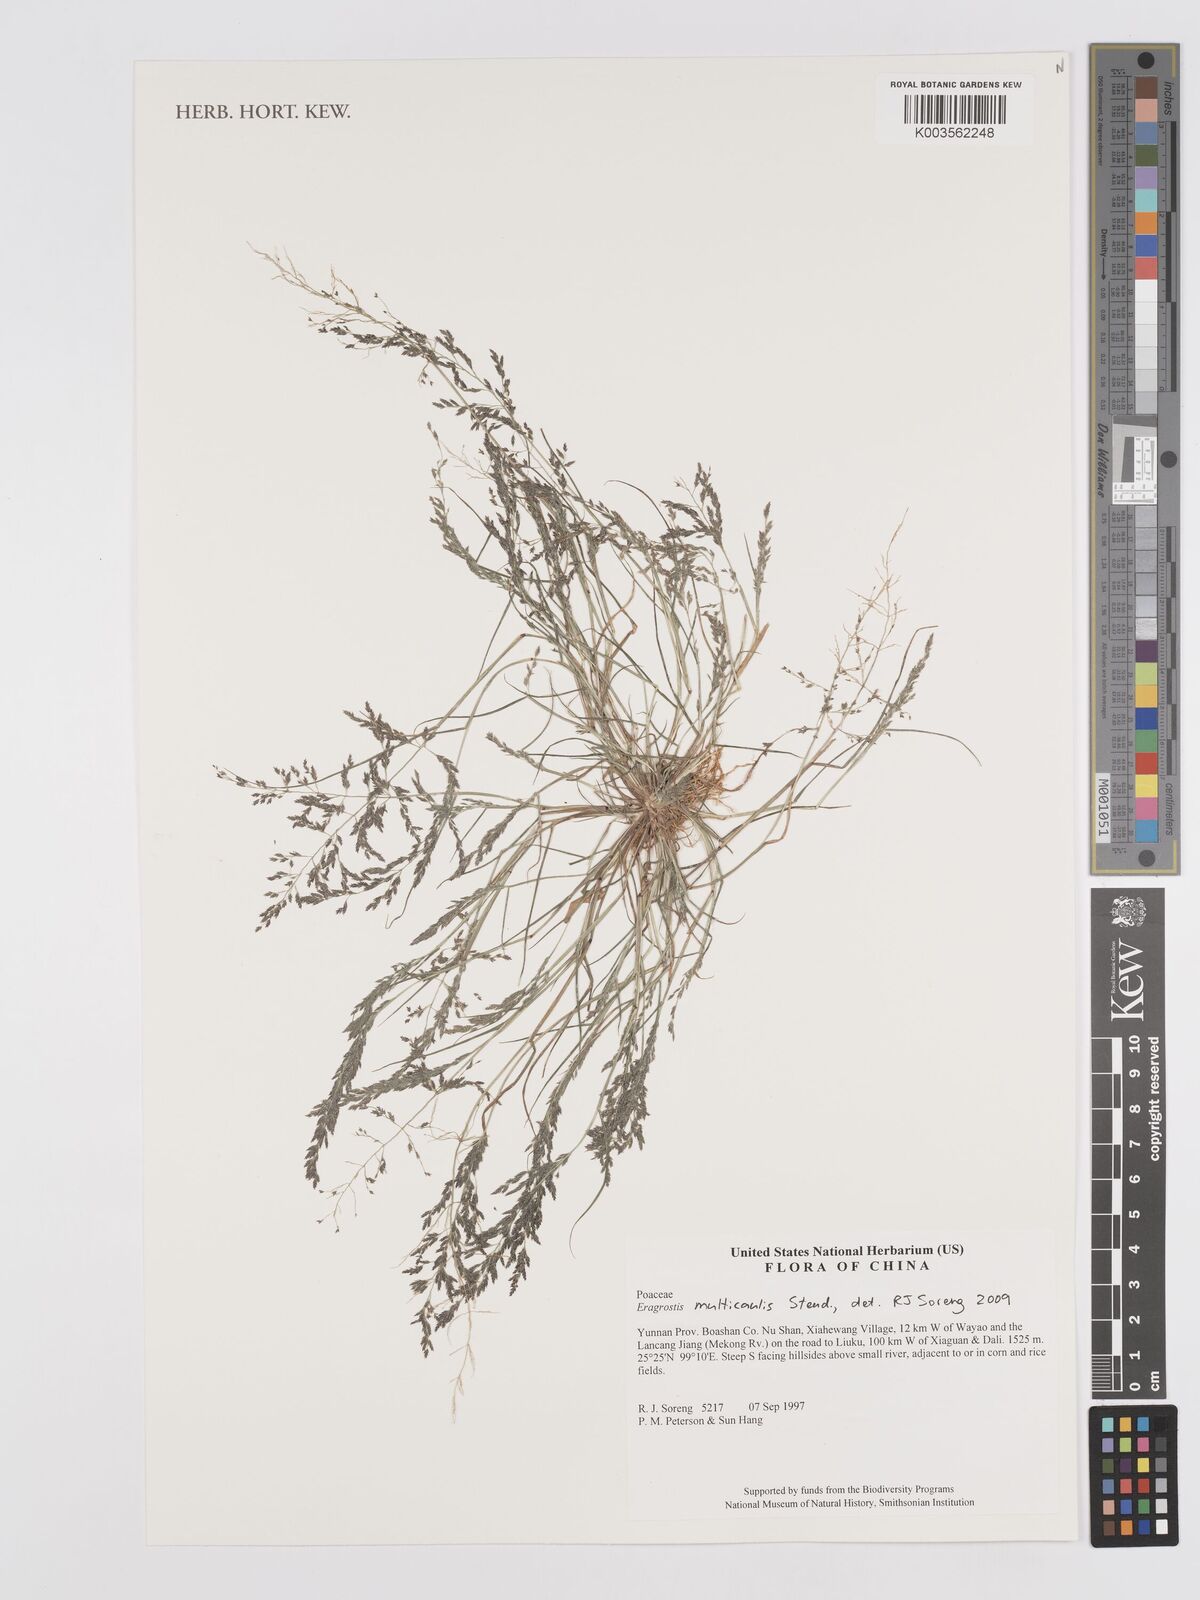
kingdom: Plantae
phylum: Tracheophyta
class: Liliopsida
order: Poales
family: Poaceae
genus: Eragrostis
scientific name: Eragrostis pilosa
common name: Indian lovegrass
